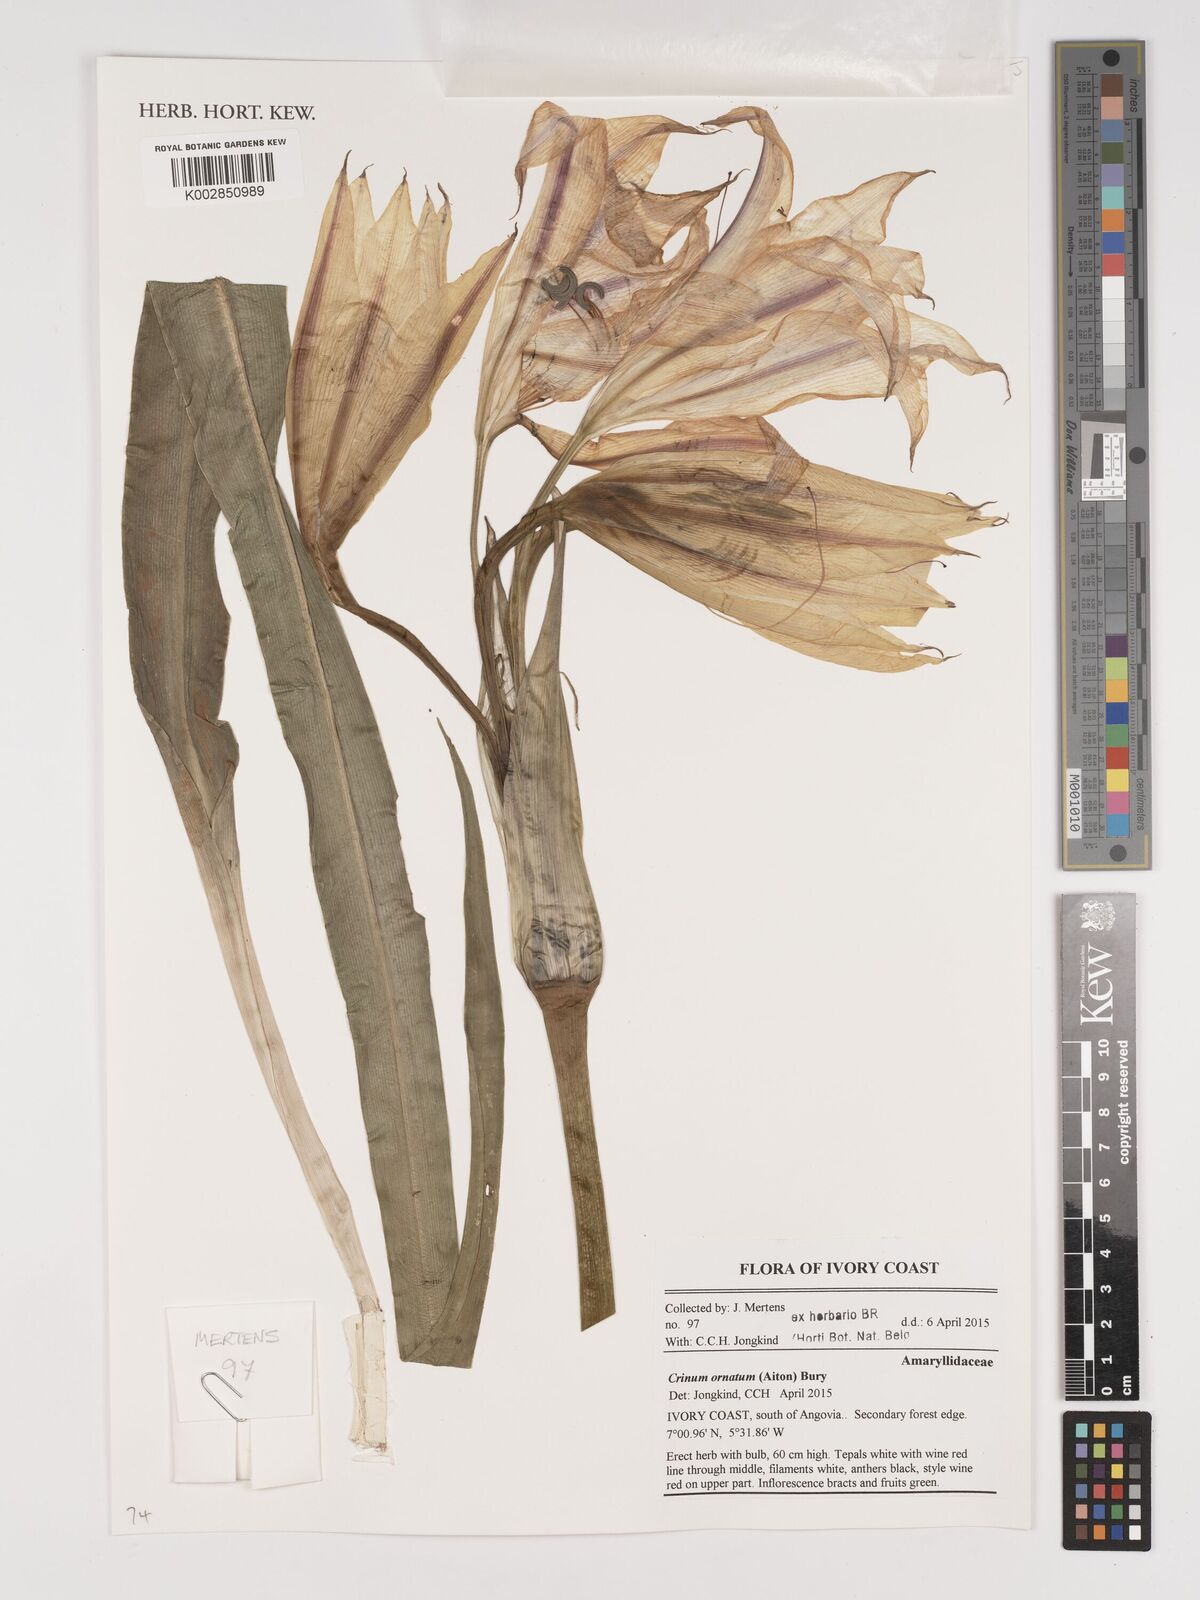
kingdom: Plantae
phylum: Tracheophyta
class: Liliopsida
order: Asparagales
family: Amaryllidaceae
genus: Crinum
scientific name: Crinum ornatum
